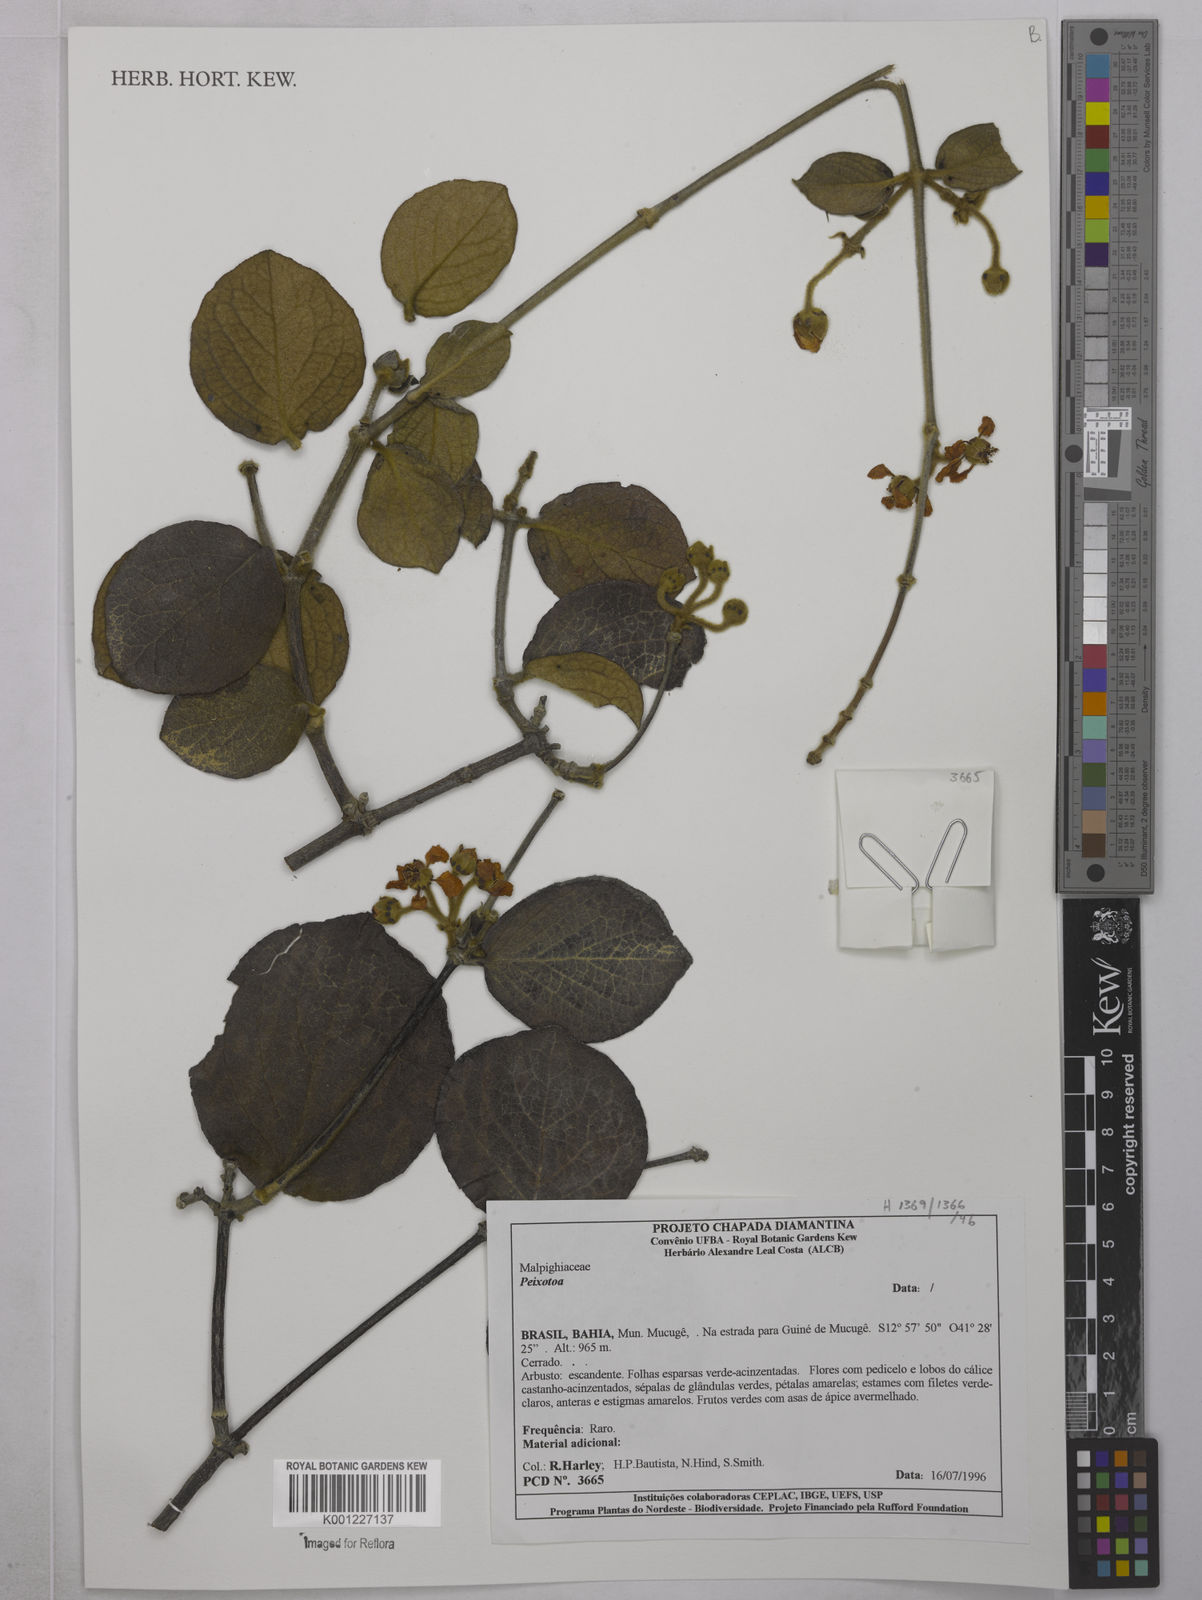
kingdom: Plantae
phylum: Tracheophyta
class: Magnoliopsida
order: Malpighiales
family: Malpighiaceae
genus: Peixotoa
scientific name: Peixotoa
